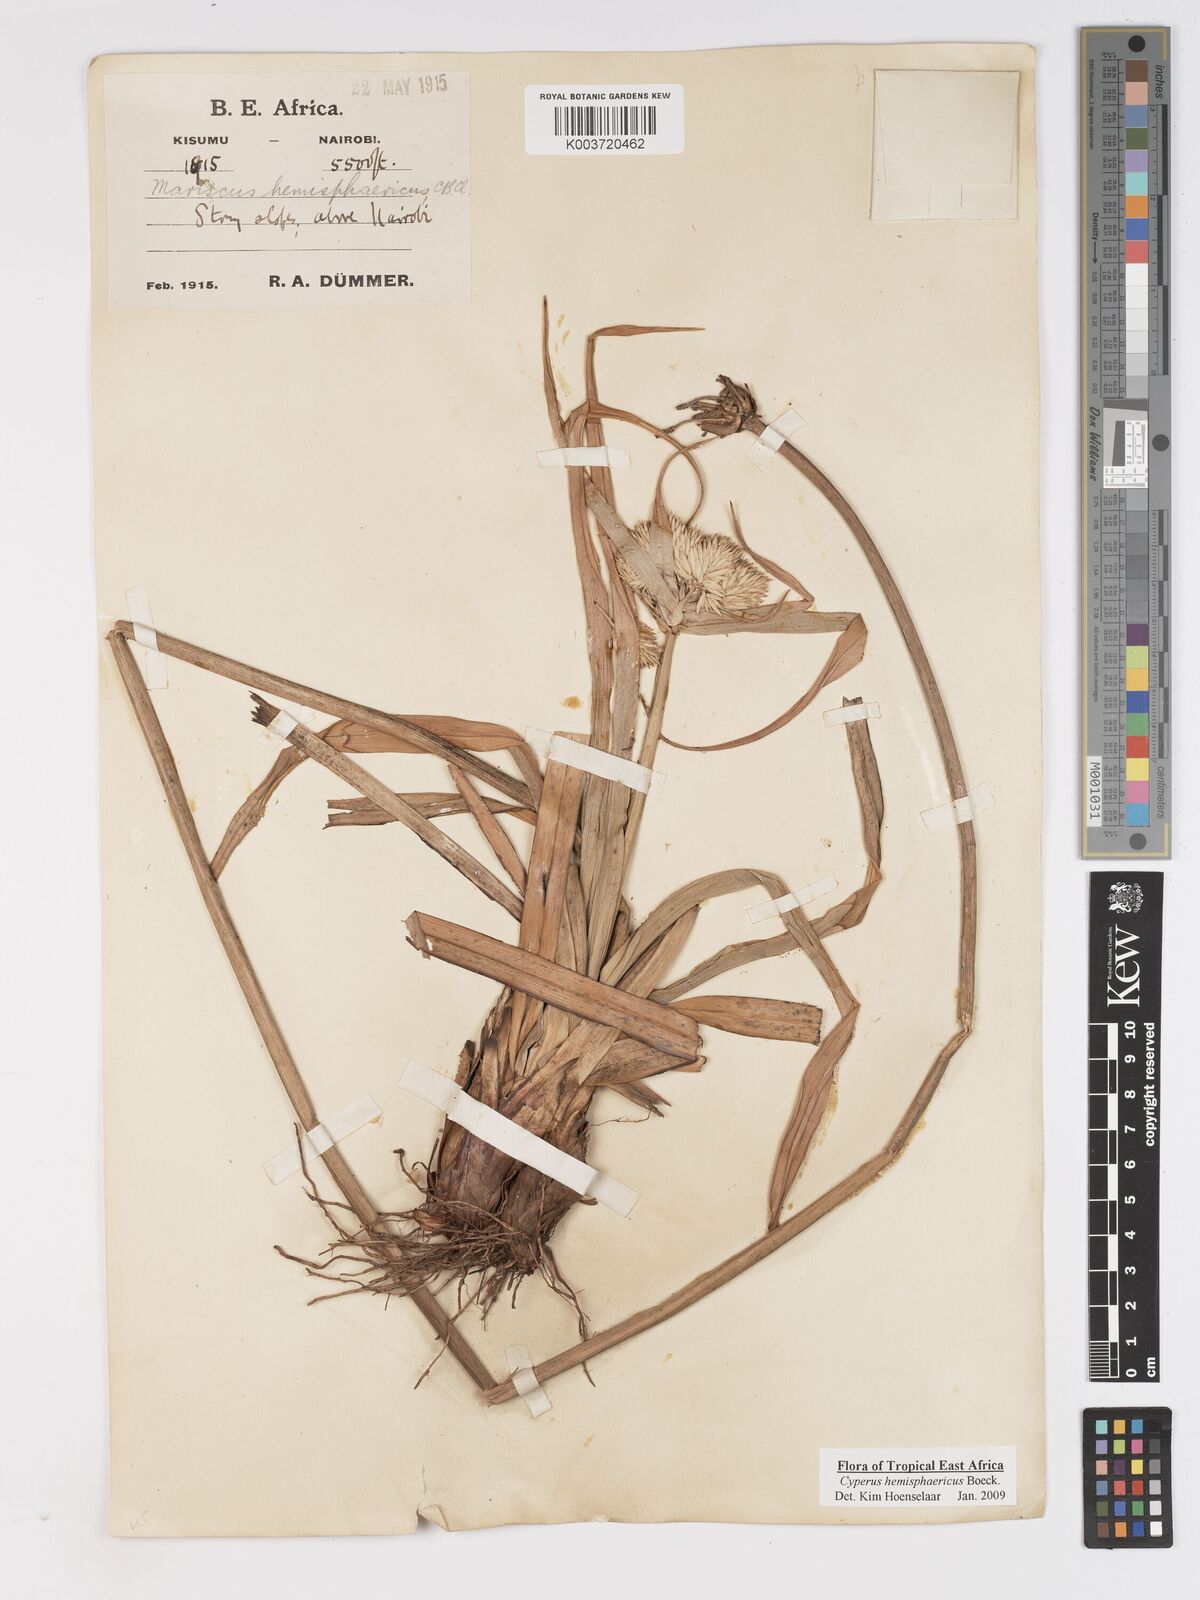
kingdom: Plantae
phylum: Tracheophyta
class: Liliopsida
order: Poales
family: Cyperaceae
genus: Cyperus
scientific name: Cyperus hemisphaericus
